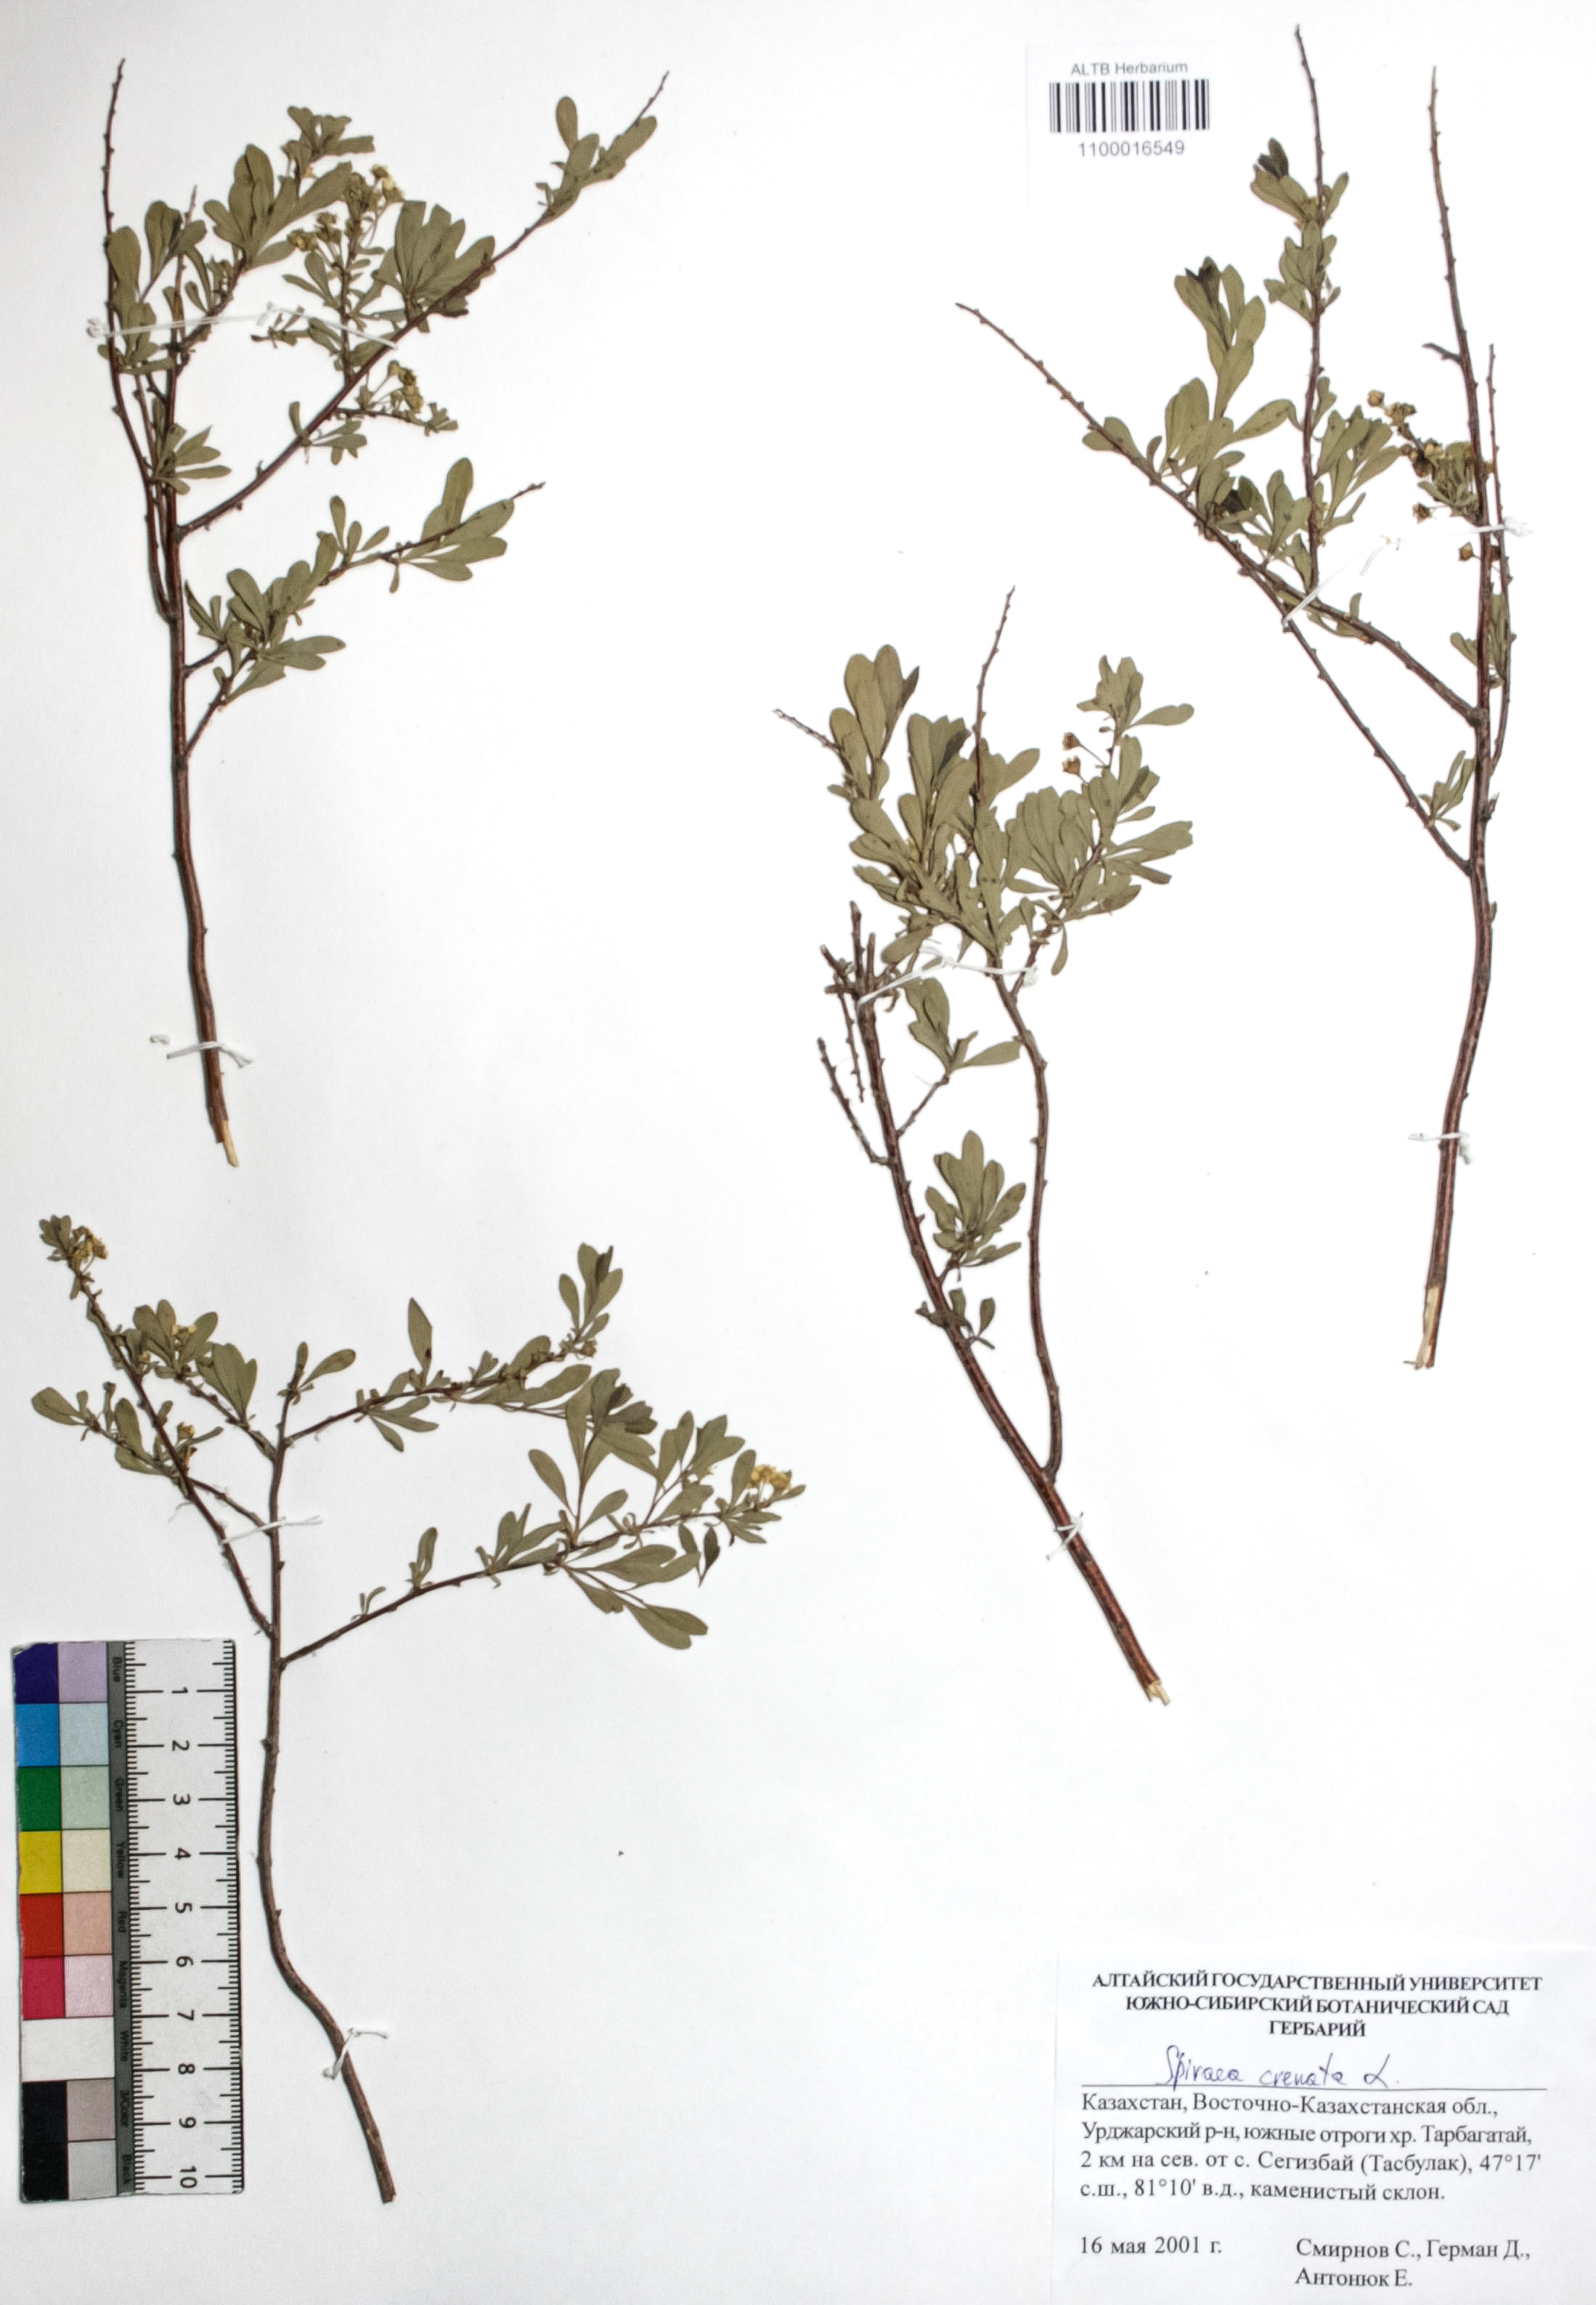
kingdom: Plantae
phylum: Tracheophyta
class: Magnoliopsida
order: Rosales
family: Rosaceae
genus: Spiraea
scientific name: Spiraea crenata
